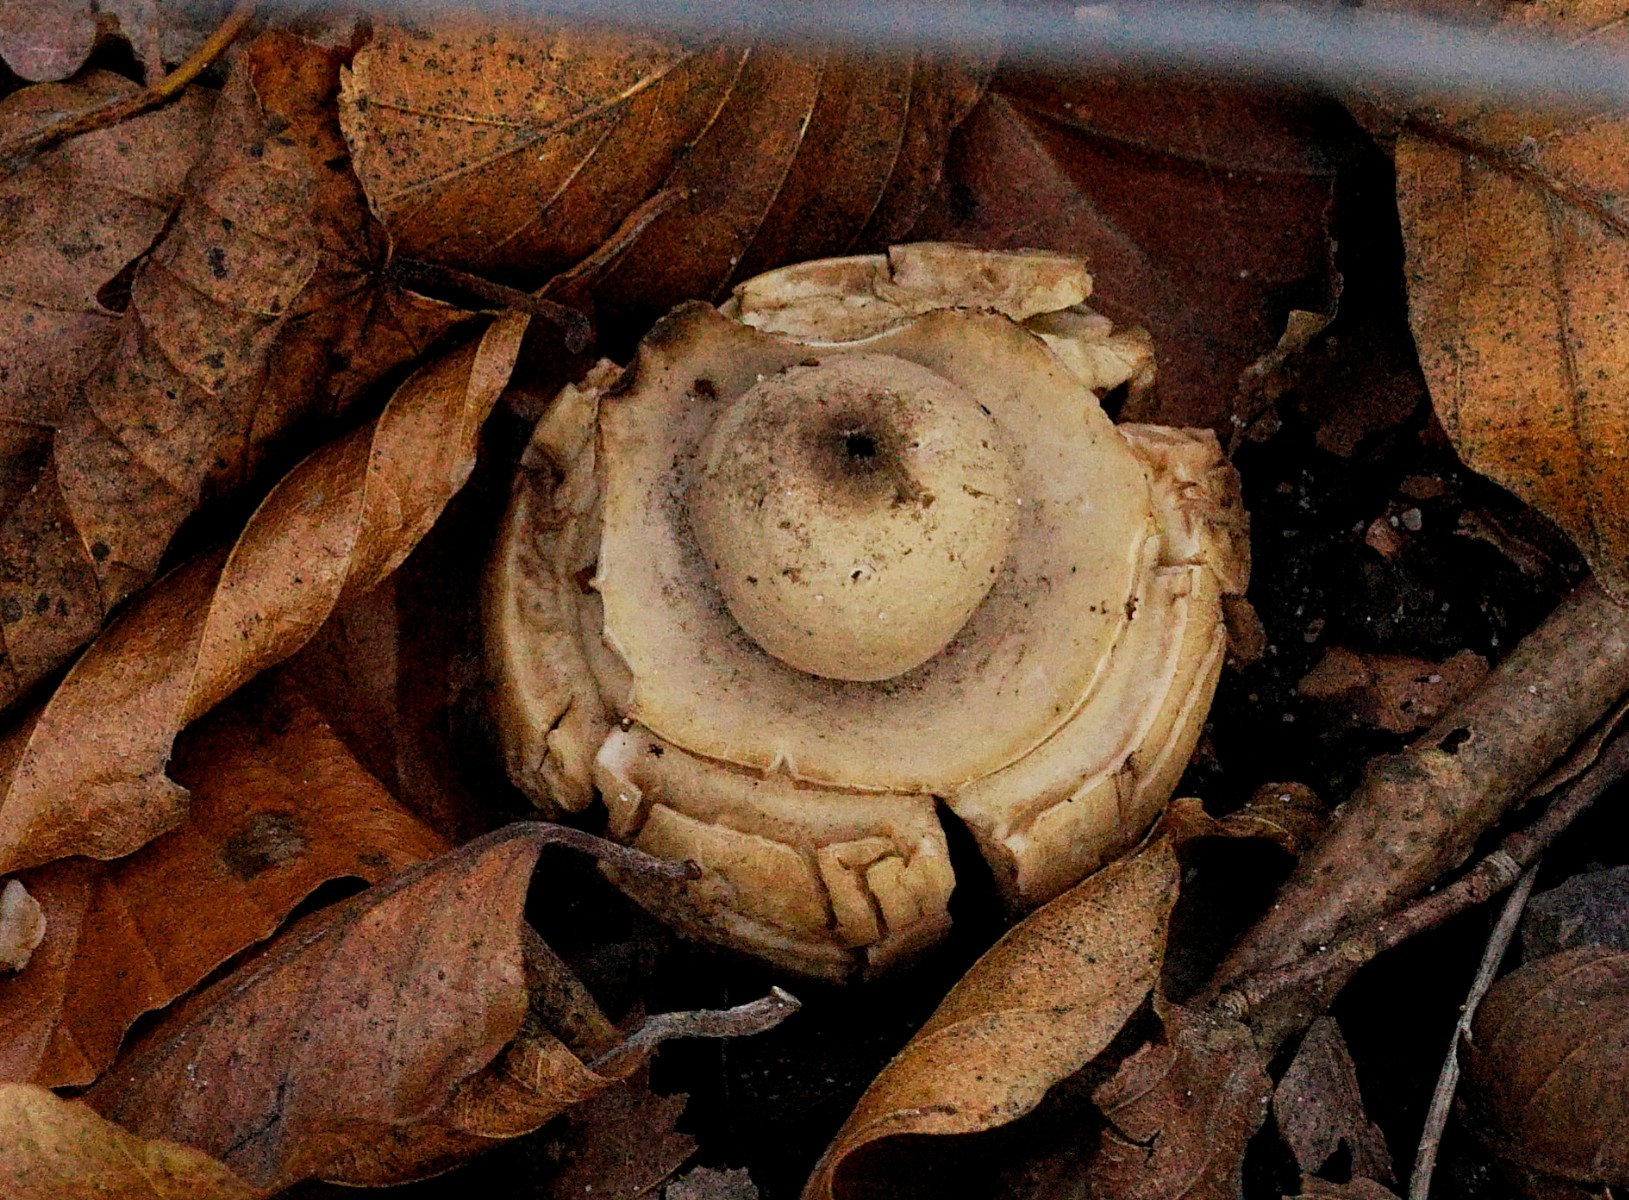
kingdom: Fungi
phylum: Basidiomycota
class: Agaricomycetes
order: Geastrales
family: Geastraceae
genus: Geastrum
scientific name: Geastrum michelianum
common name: kødet stjernebold
